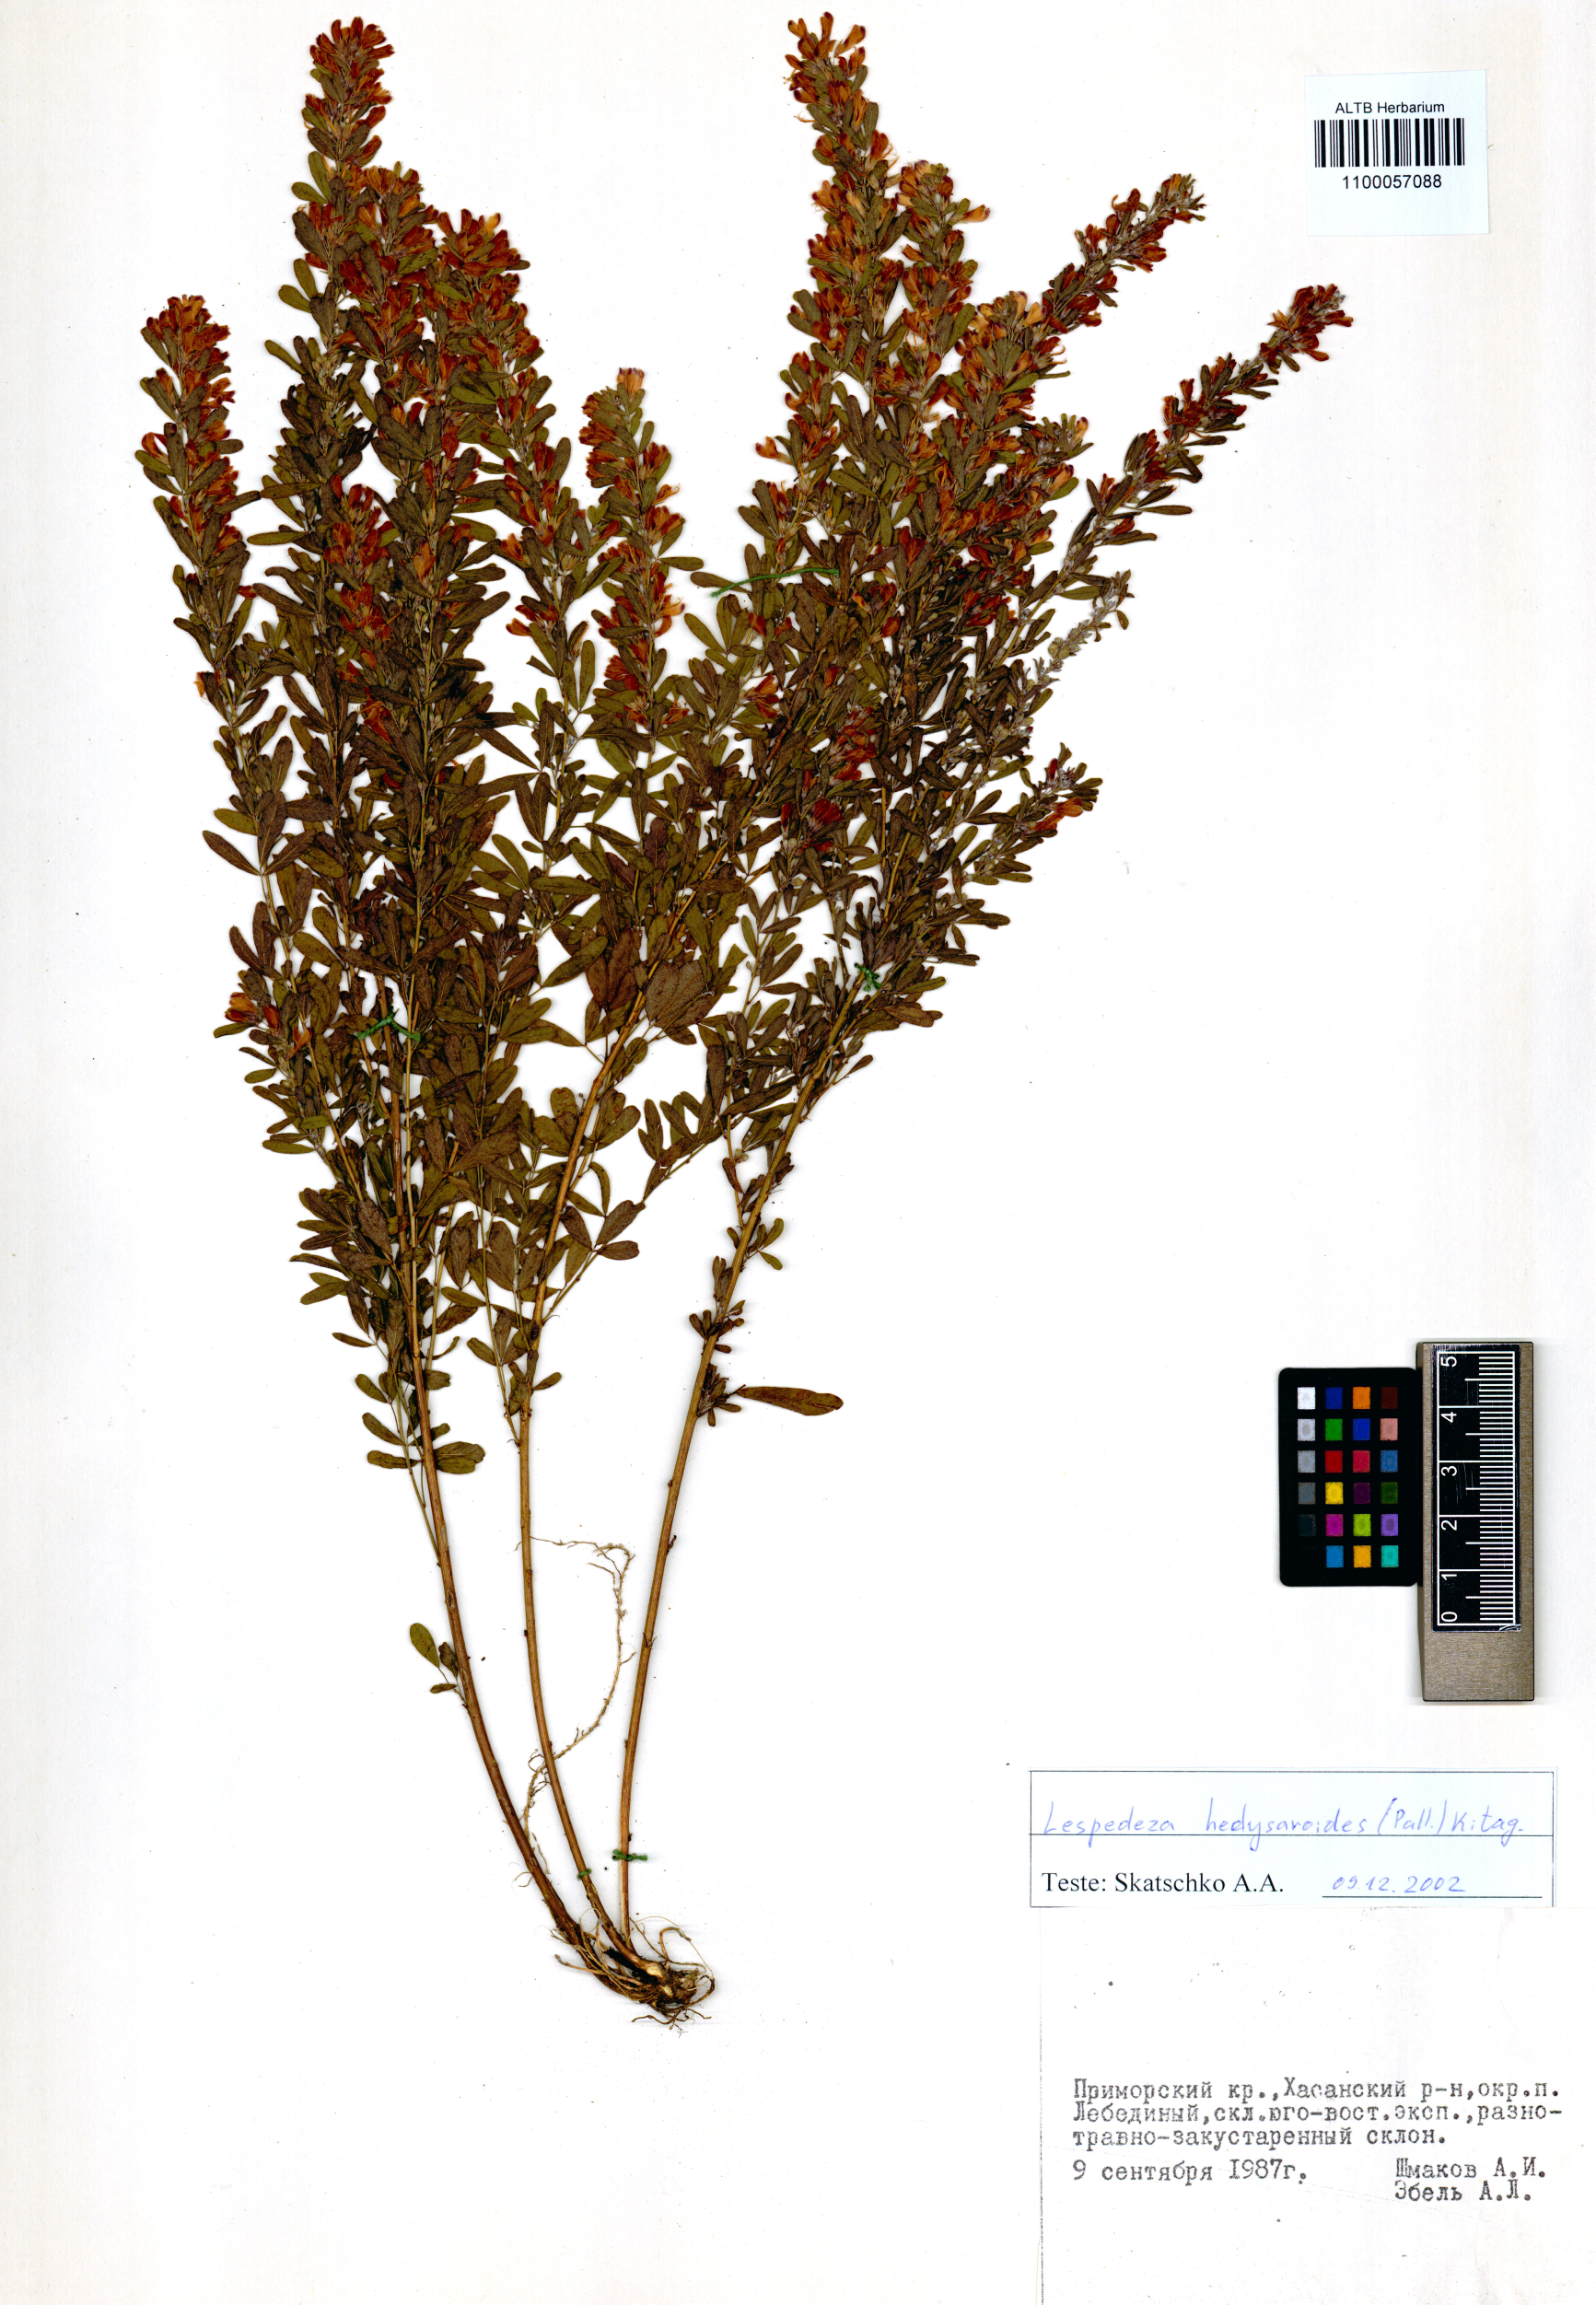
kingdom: Plantae
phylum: Tracheophyta
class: Magnoliopsida
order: Fabales
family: Fabaceae
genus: Lespedeza
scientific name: Lespedeza juncea
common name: Siberian lespedeza
